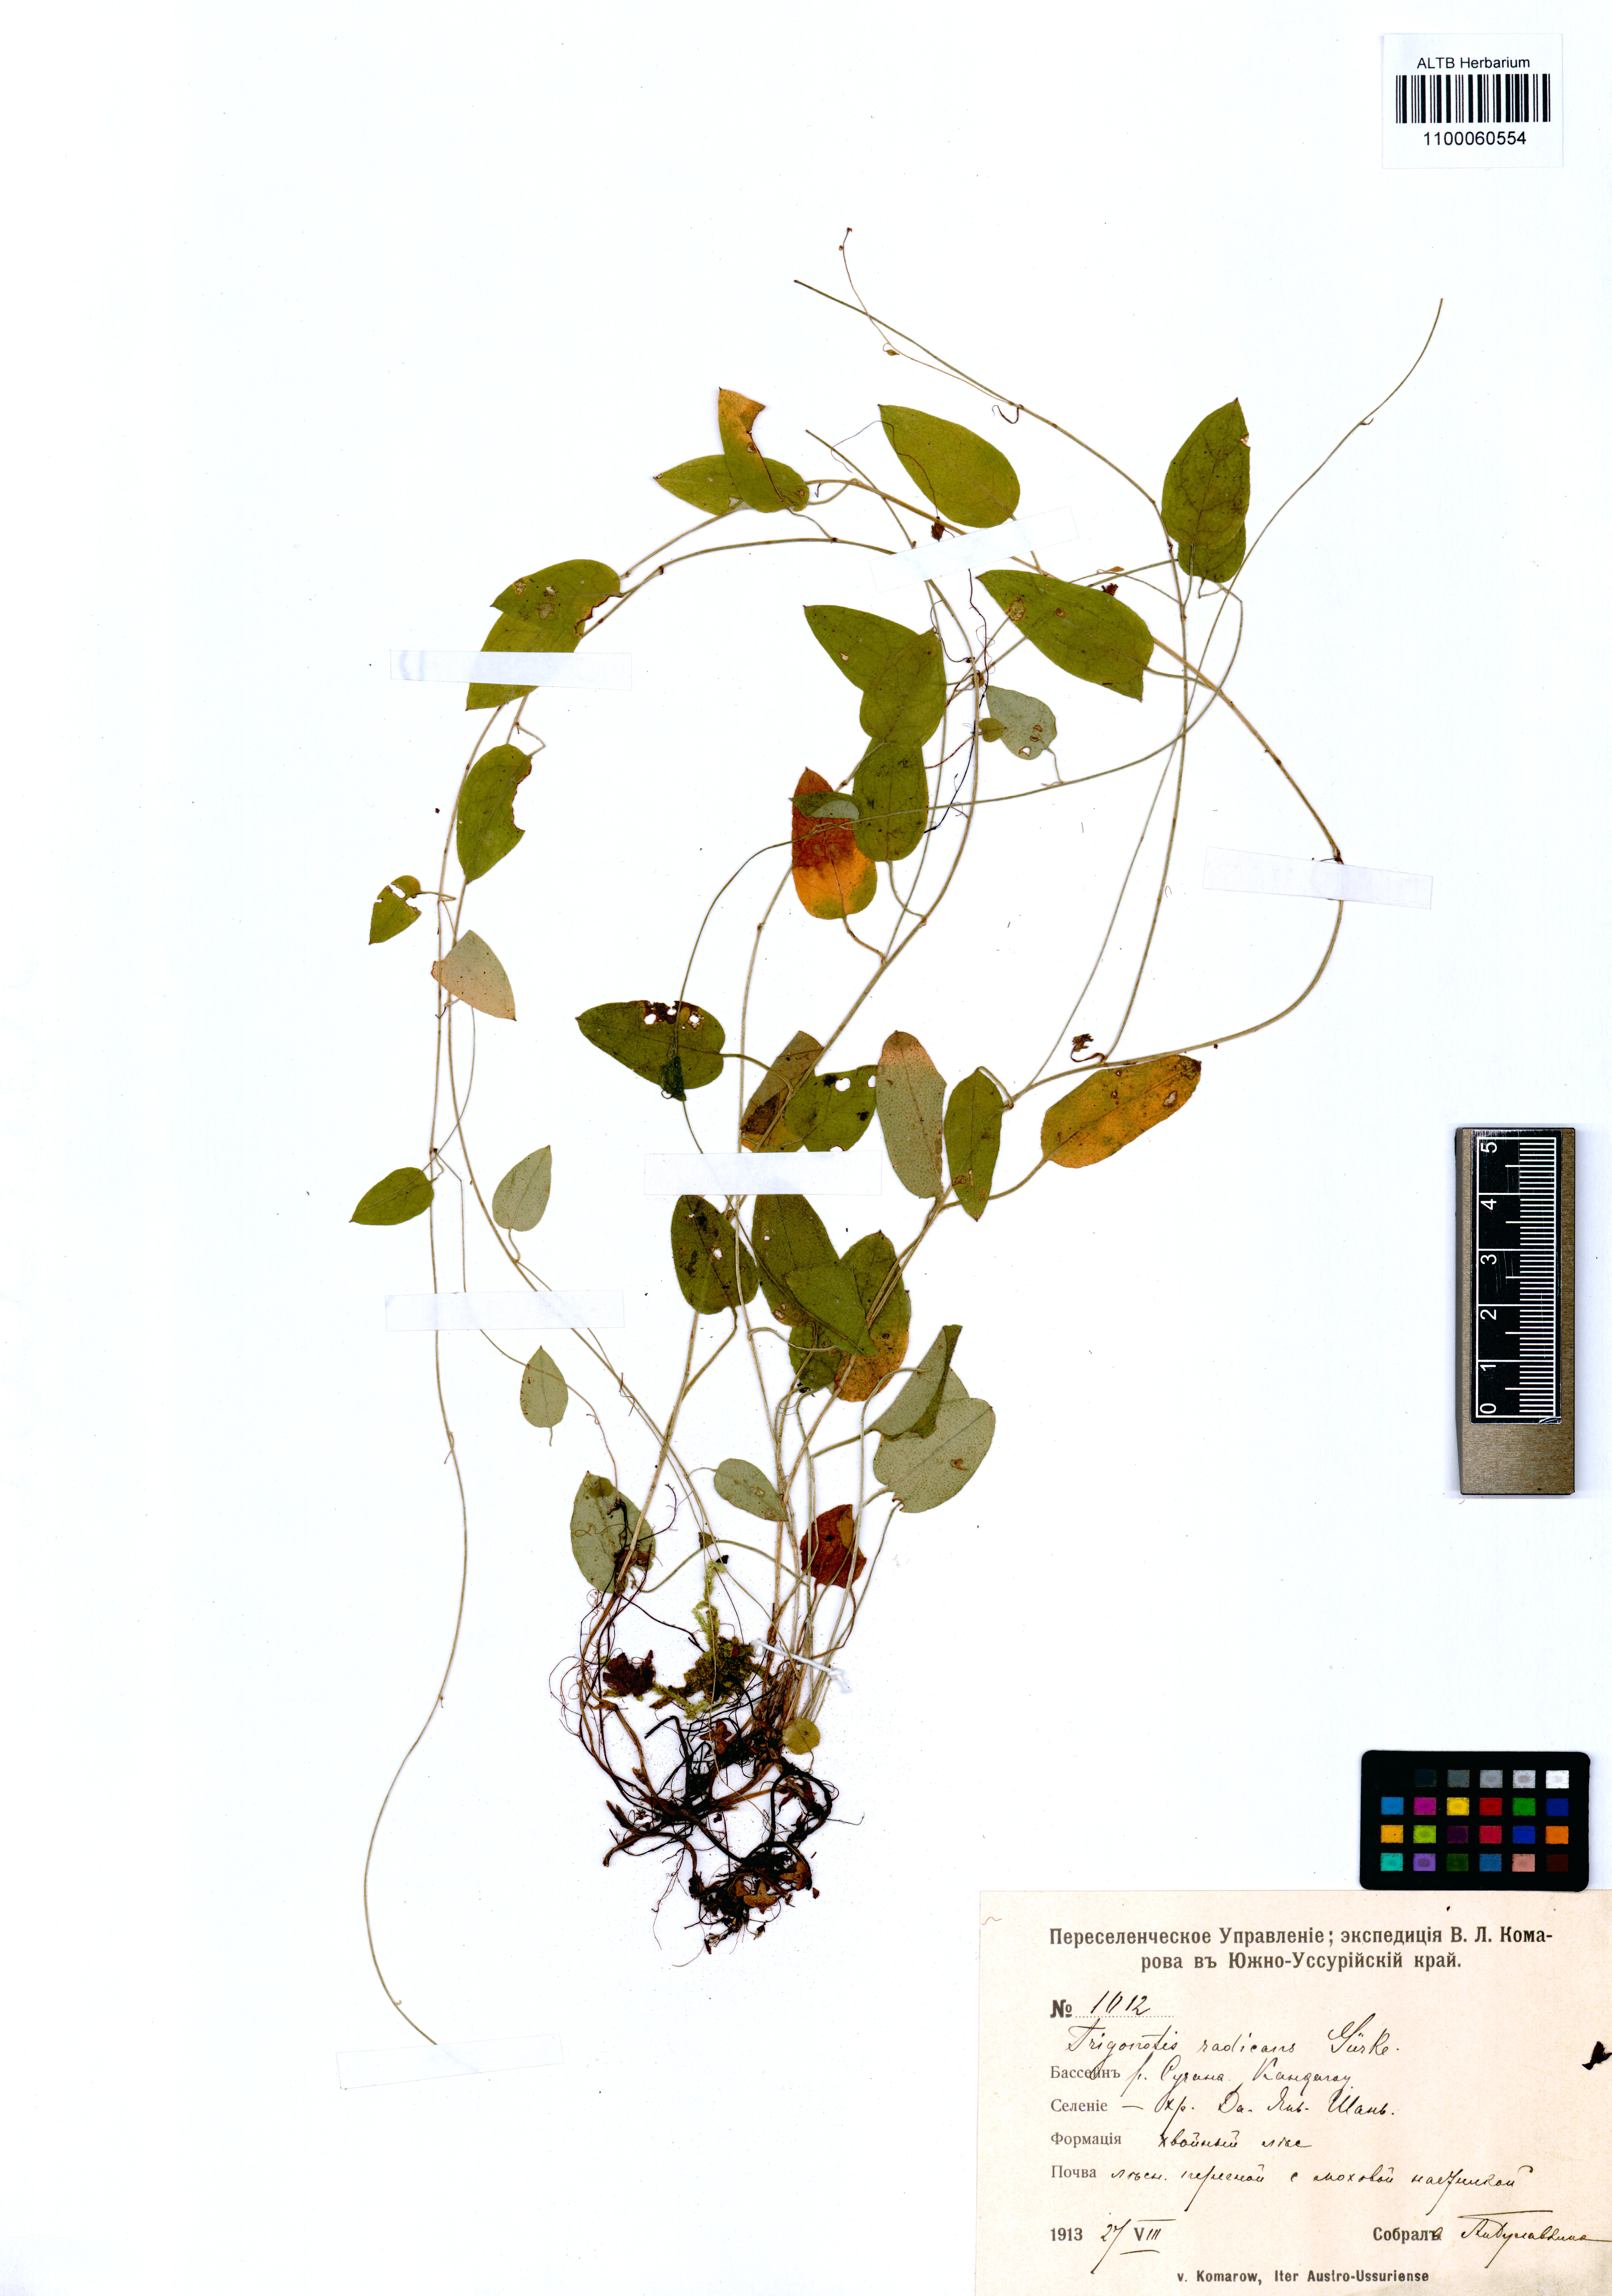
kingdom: Plantae
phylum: Tracheophyta
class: Magnoliopsida
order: Boraginales
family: Boraginaceae
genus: Trigonotis
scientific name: Trigonotis radicans
